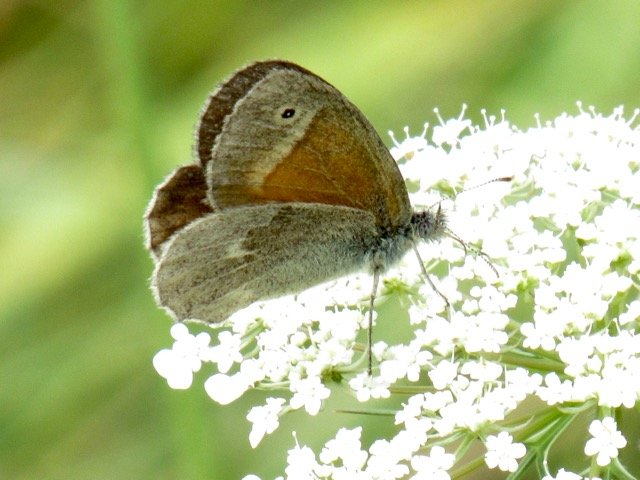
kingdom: Animalia
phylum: Arthropoda
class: Insecta
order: Lepidoptera
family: Nymphalidae
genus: Coenonympha
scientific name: Coenonympha tullia
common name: Large Heath
